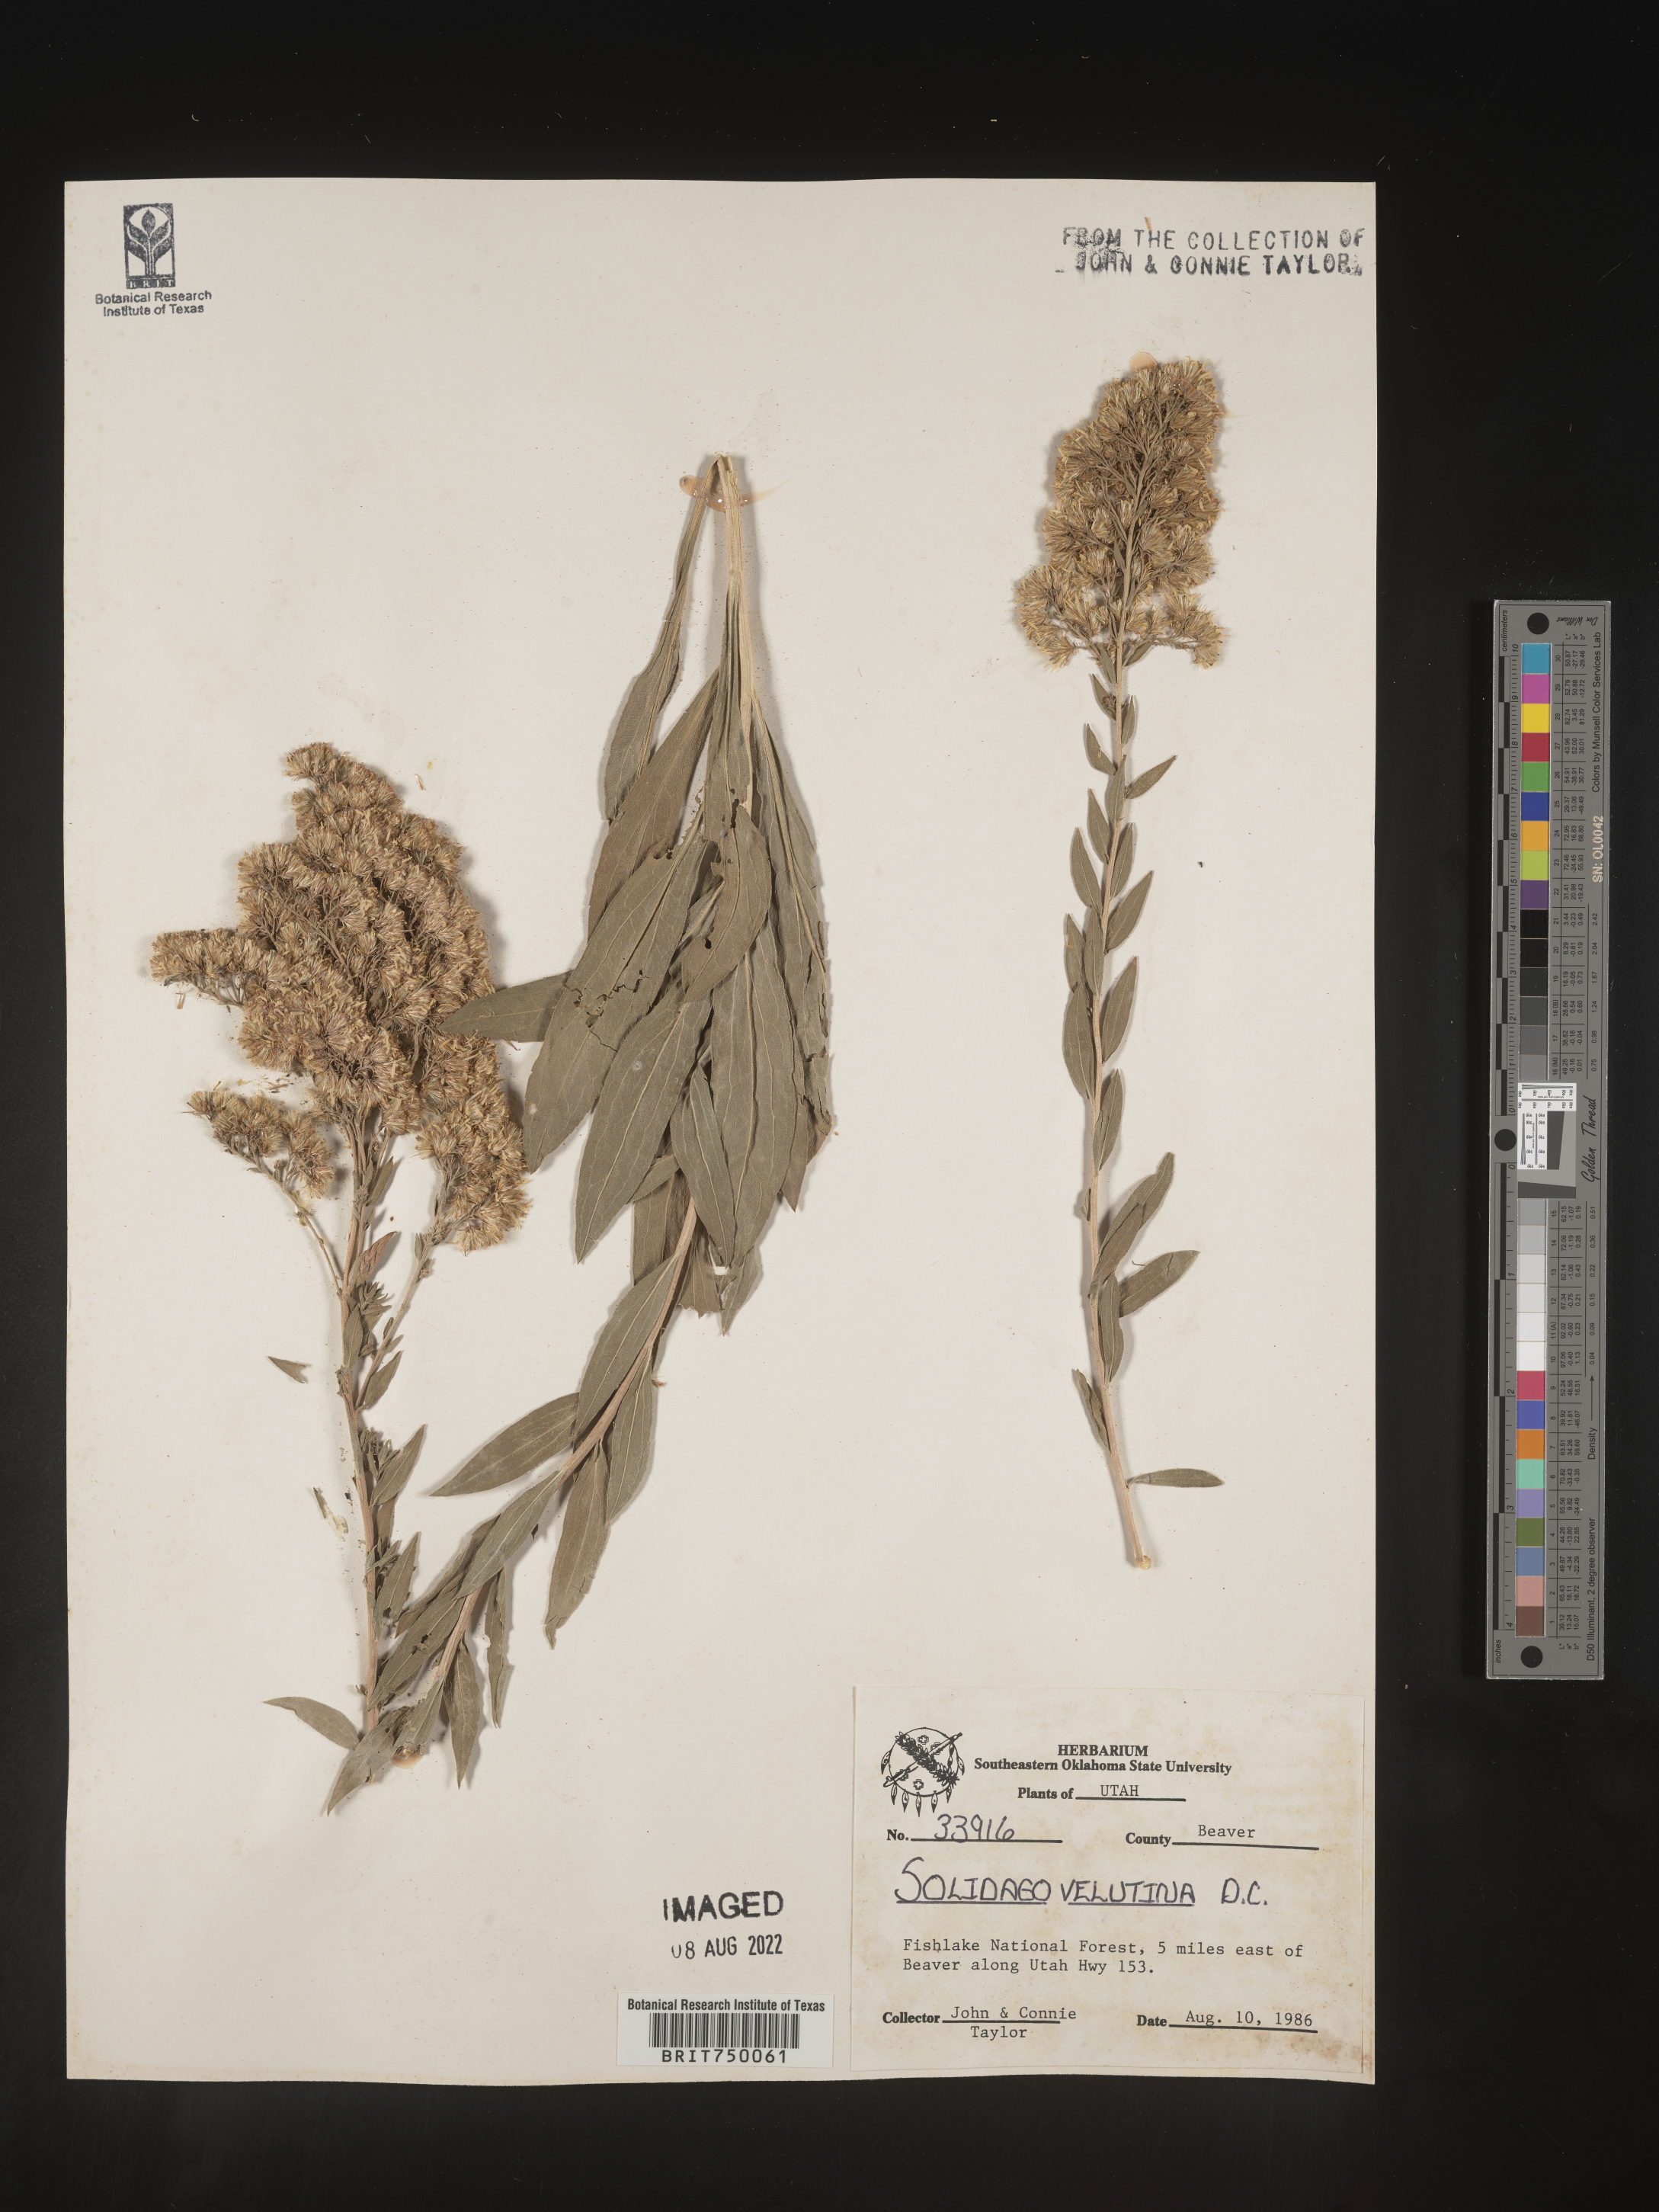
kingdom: Plantae
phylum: Tracheophyta
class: Magnoliopsida
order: Asterales
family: Asteraceae
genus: Solidago
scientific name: Solidago velutina
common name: Three-nerve goldenrod
